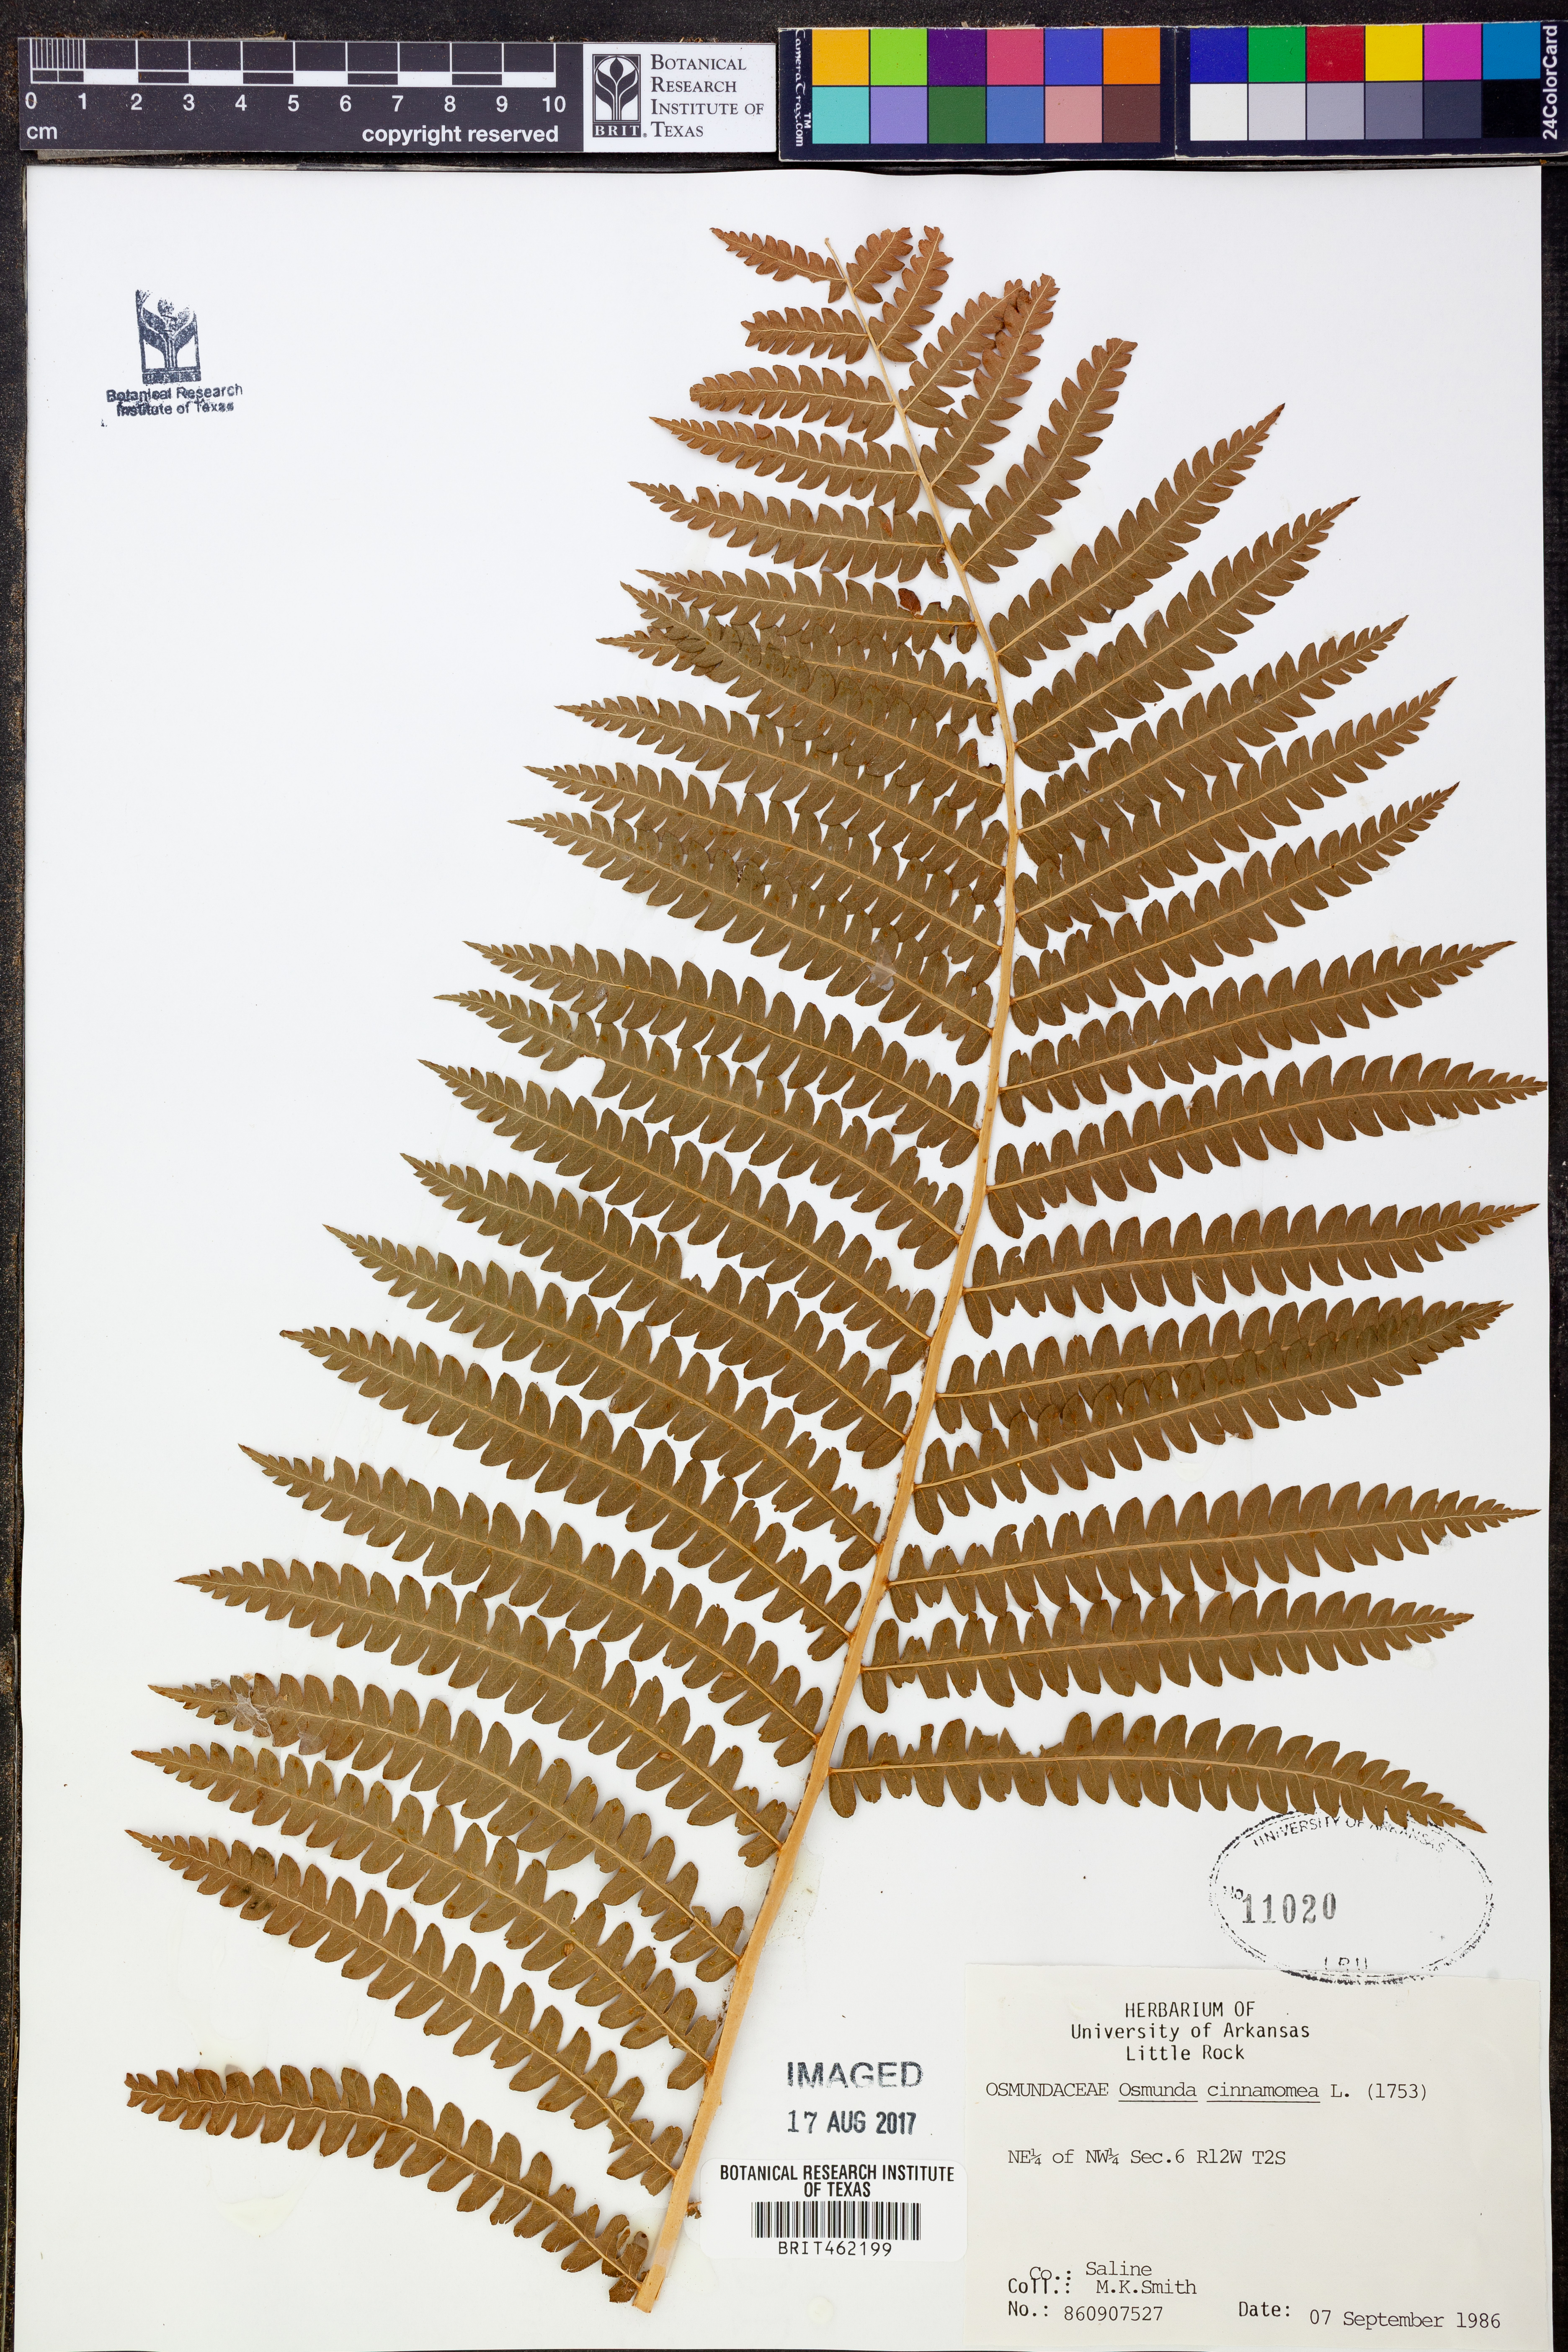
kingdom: Plantae
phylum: Tracheophyta
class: Polypodiopsida
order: Osmundales
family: Osmundaceae
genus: Osmundastrum
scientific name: Osmundastrum cinnamomeum
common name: Cinnamon fern
